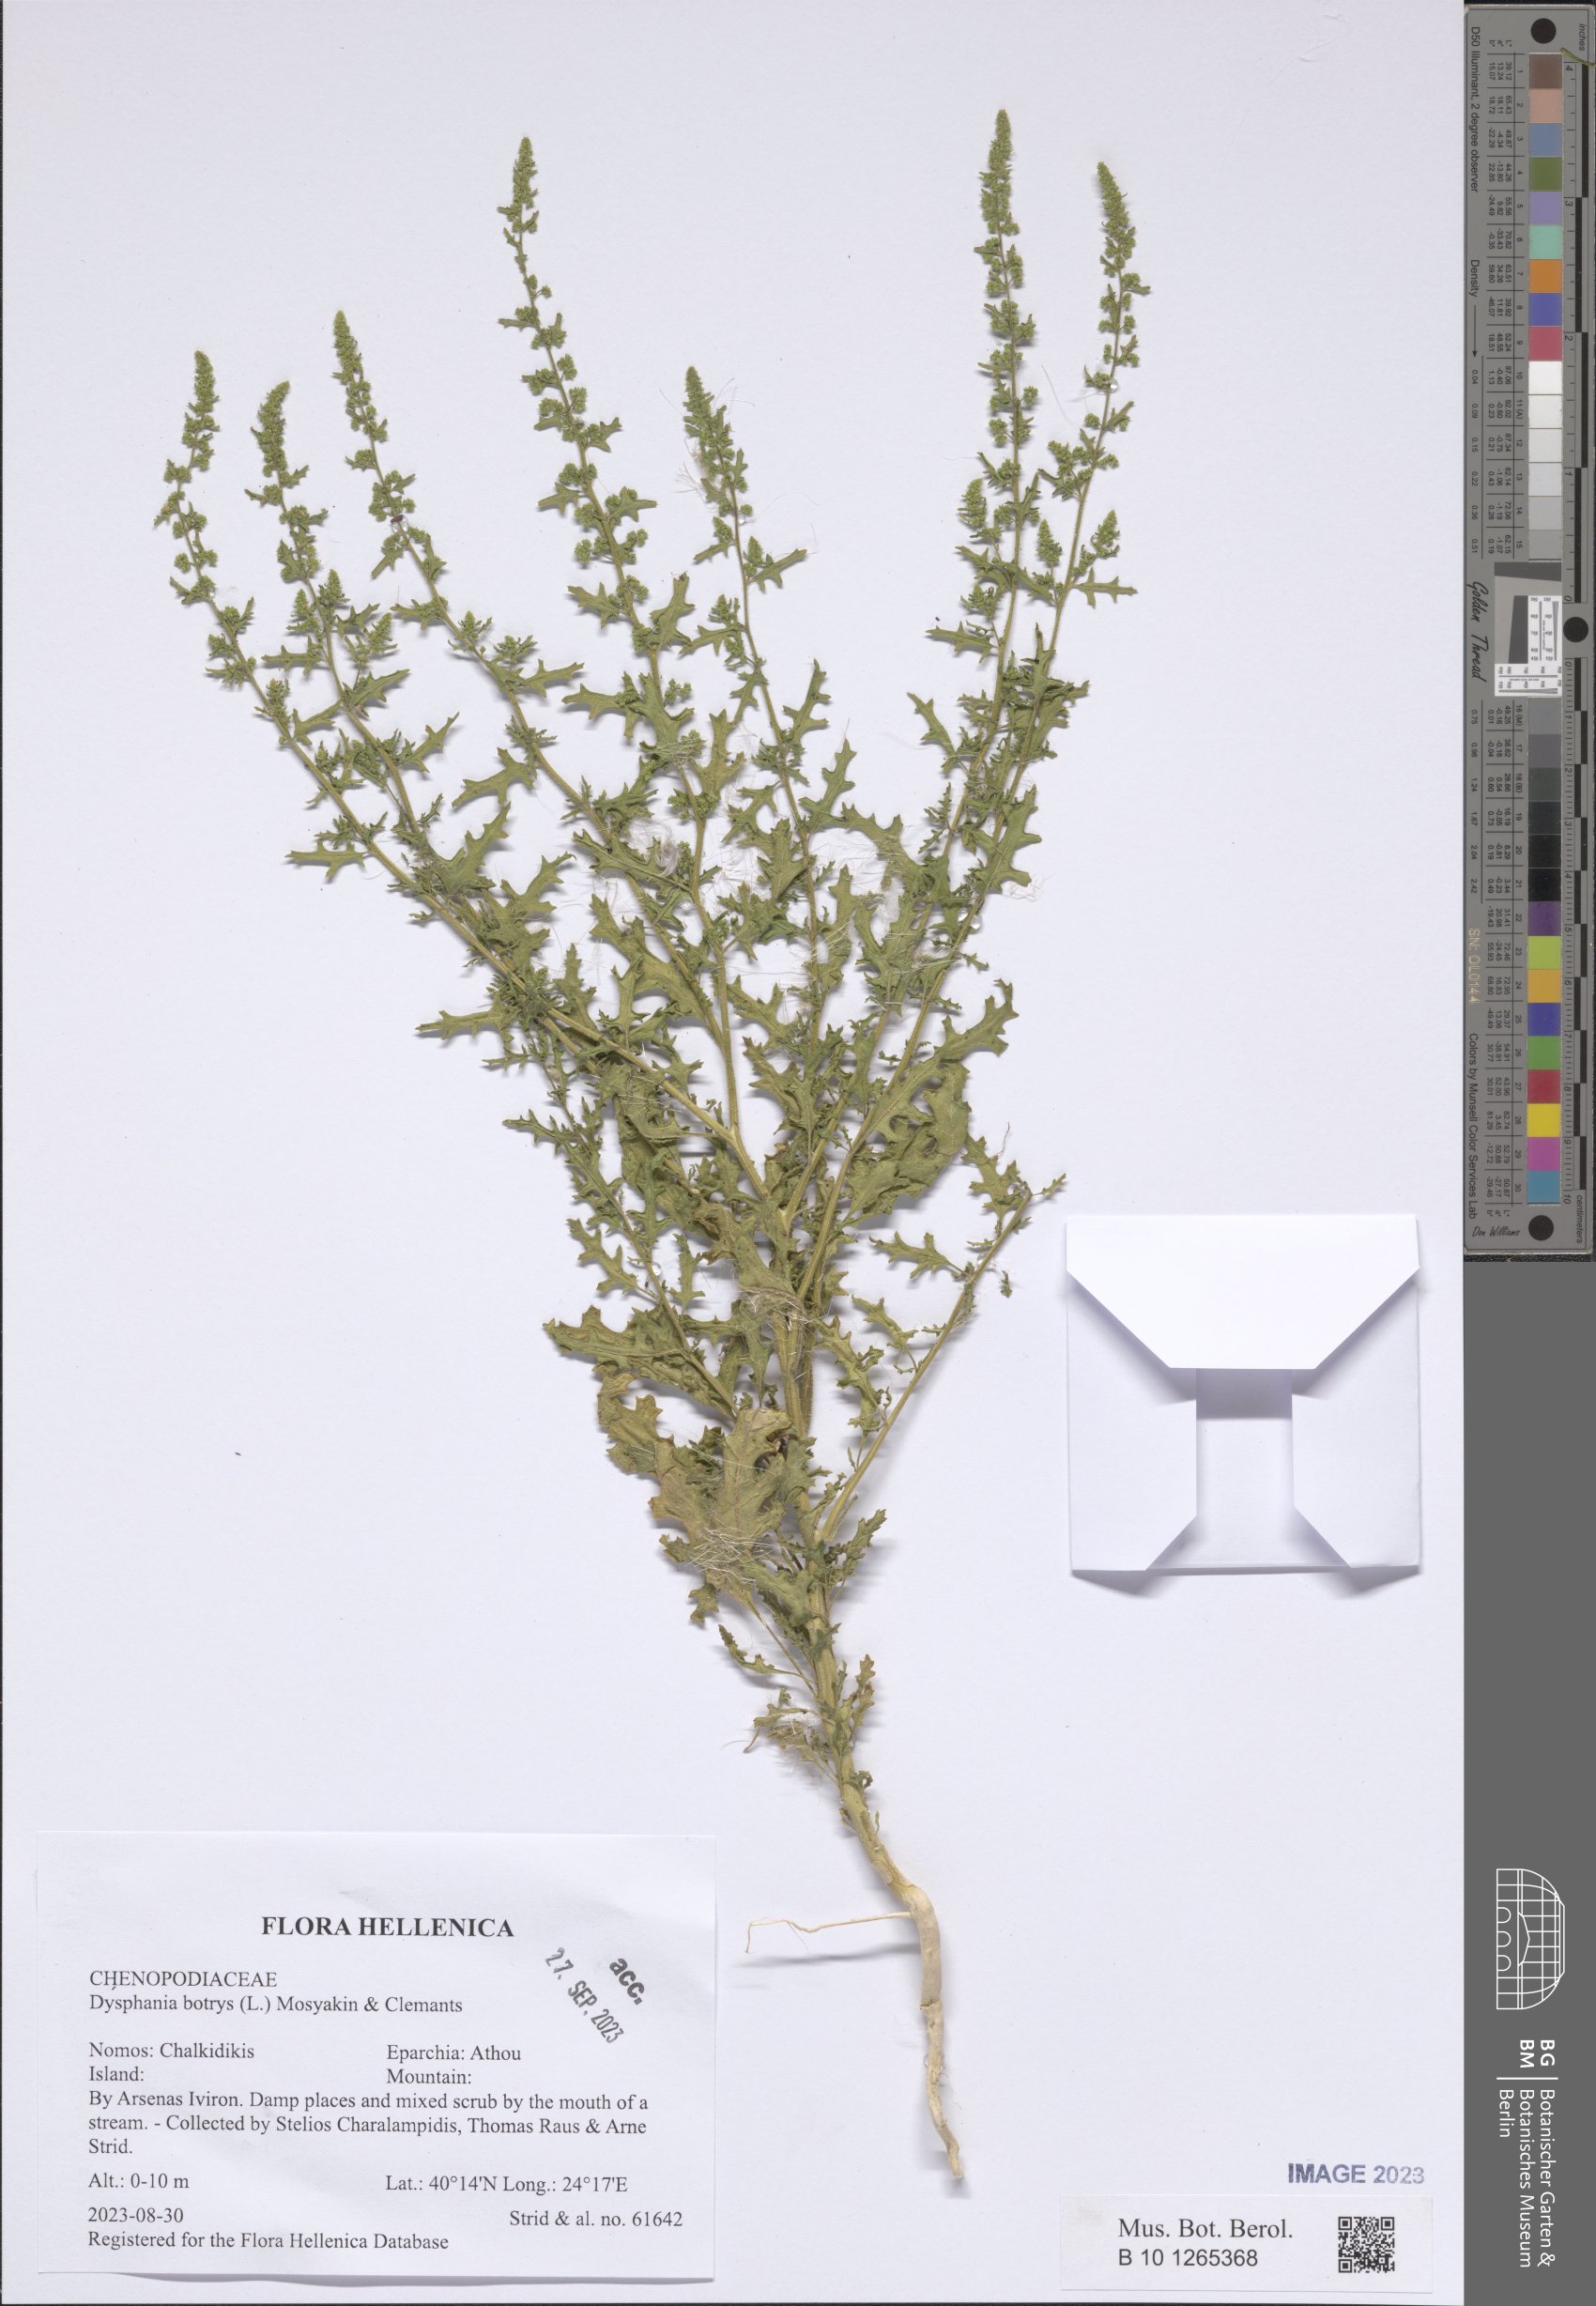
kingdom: Plantae
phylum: Tracheophyta
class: Magnoliopsida
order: Caryophyllales
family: Amaranthaceae
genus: Dysphania
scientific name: Dysphania botrys
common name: Feather-geranium
